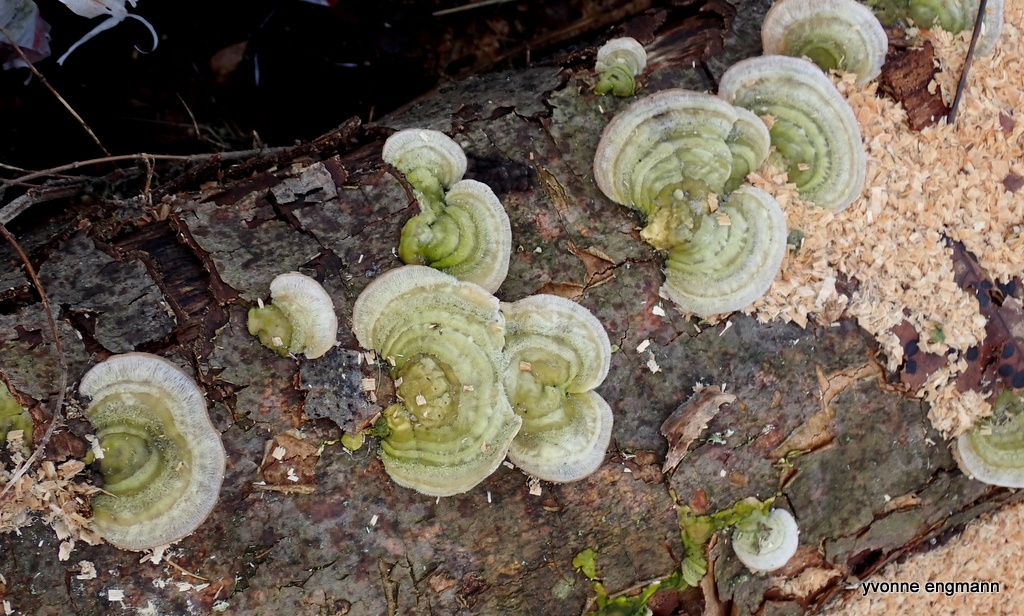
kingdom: Fungi
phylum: Basidiomycota
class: Agaricomycetes
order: Polyporales
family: Polyporaceae
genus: Trametes
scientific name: Trametes hirsuta
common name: håret læderporesvamp
